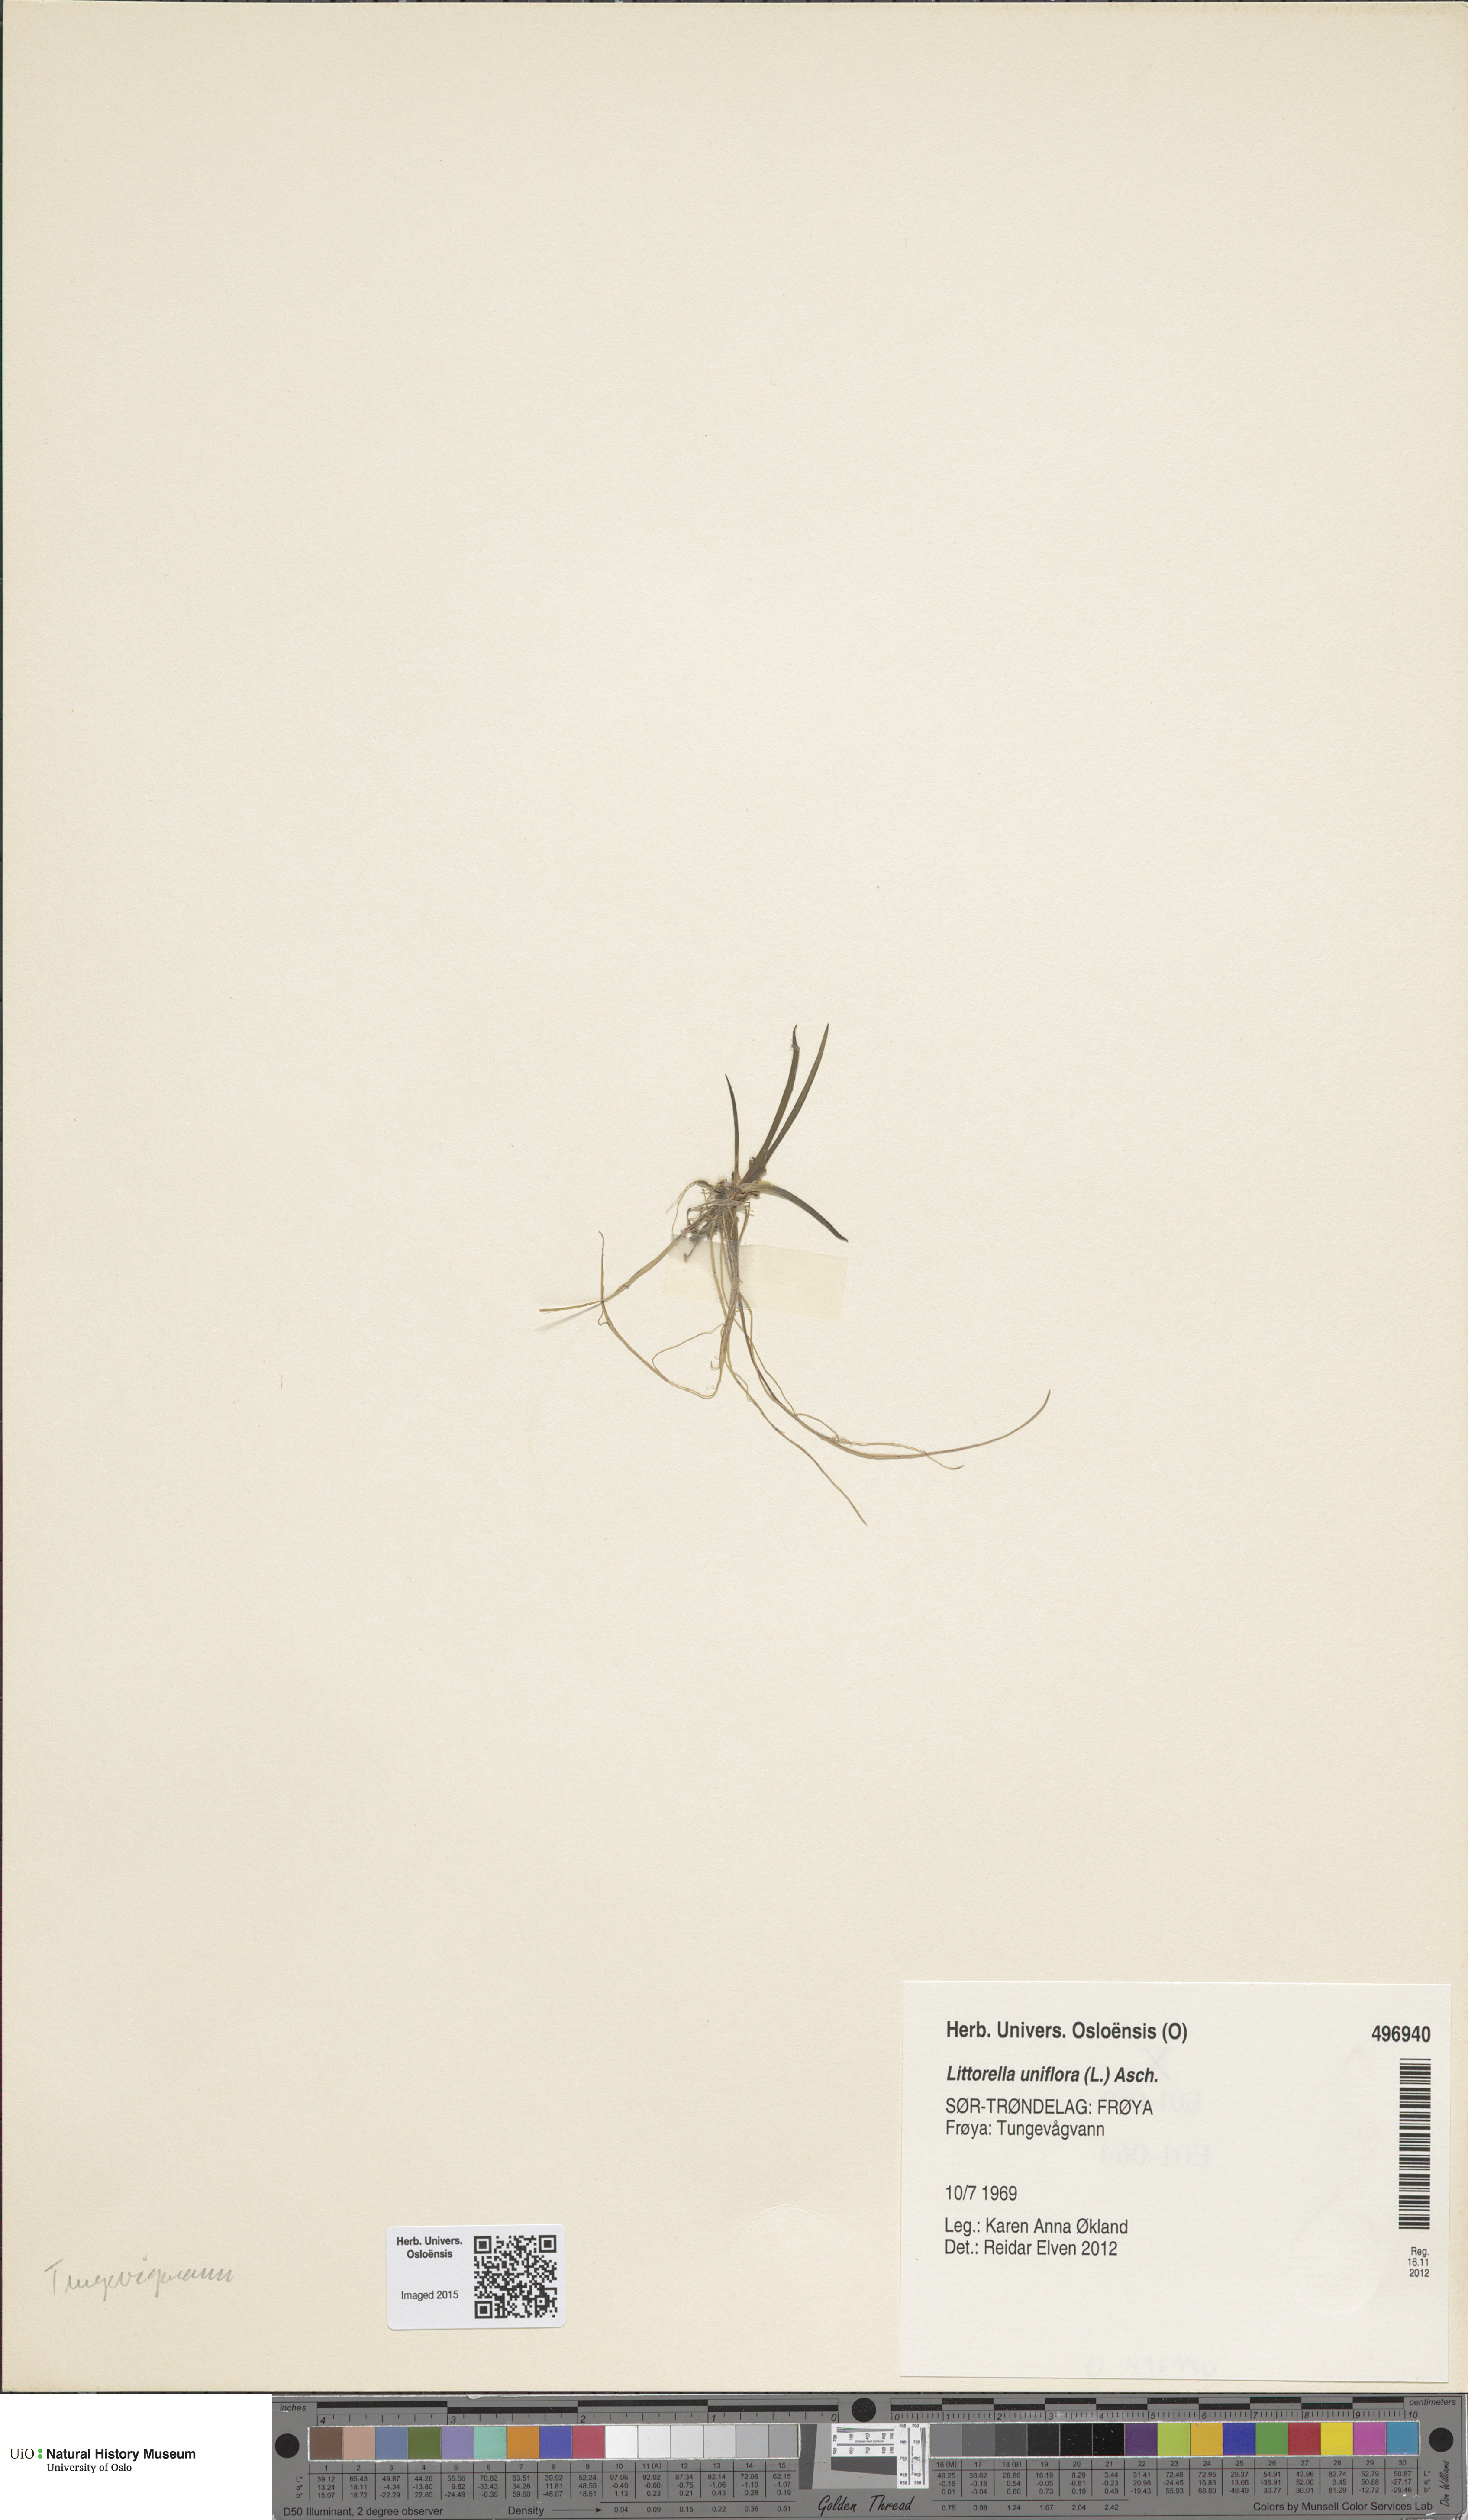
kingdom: Plantae
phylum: Tracheophyta
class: Magnoliopsida
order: Lamiales
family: Plantaginaceae
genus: Littorella
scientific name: Littorella uniflora
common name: Shoreweed
